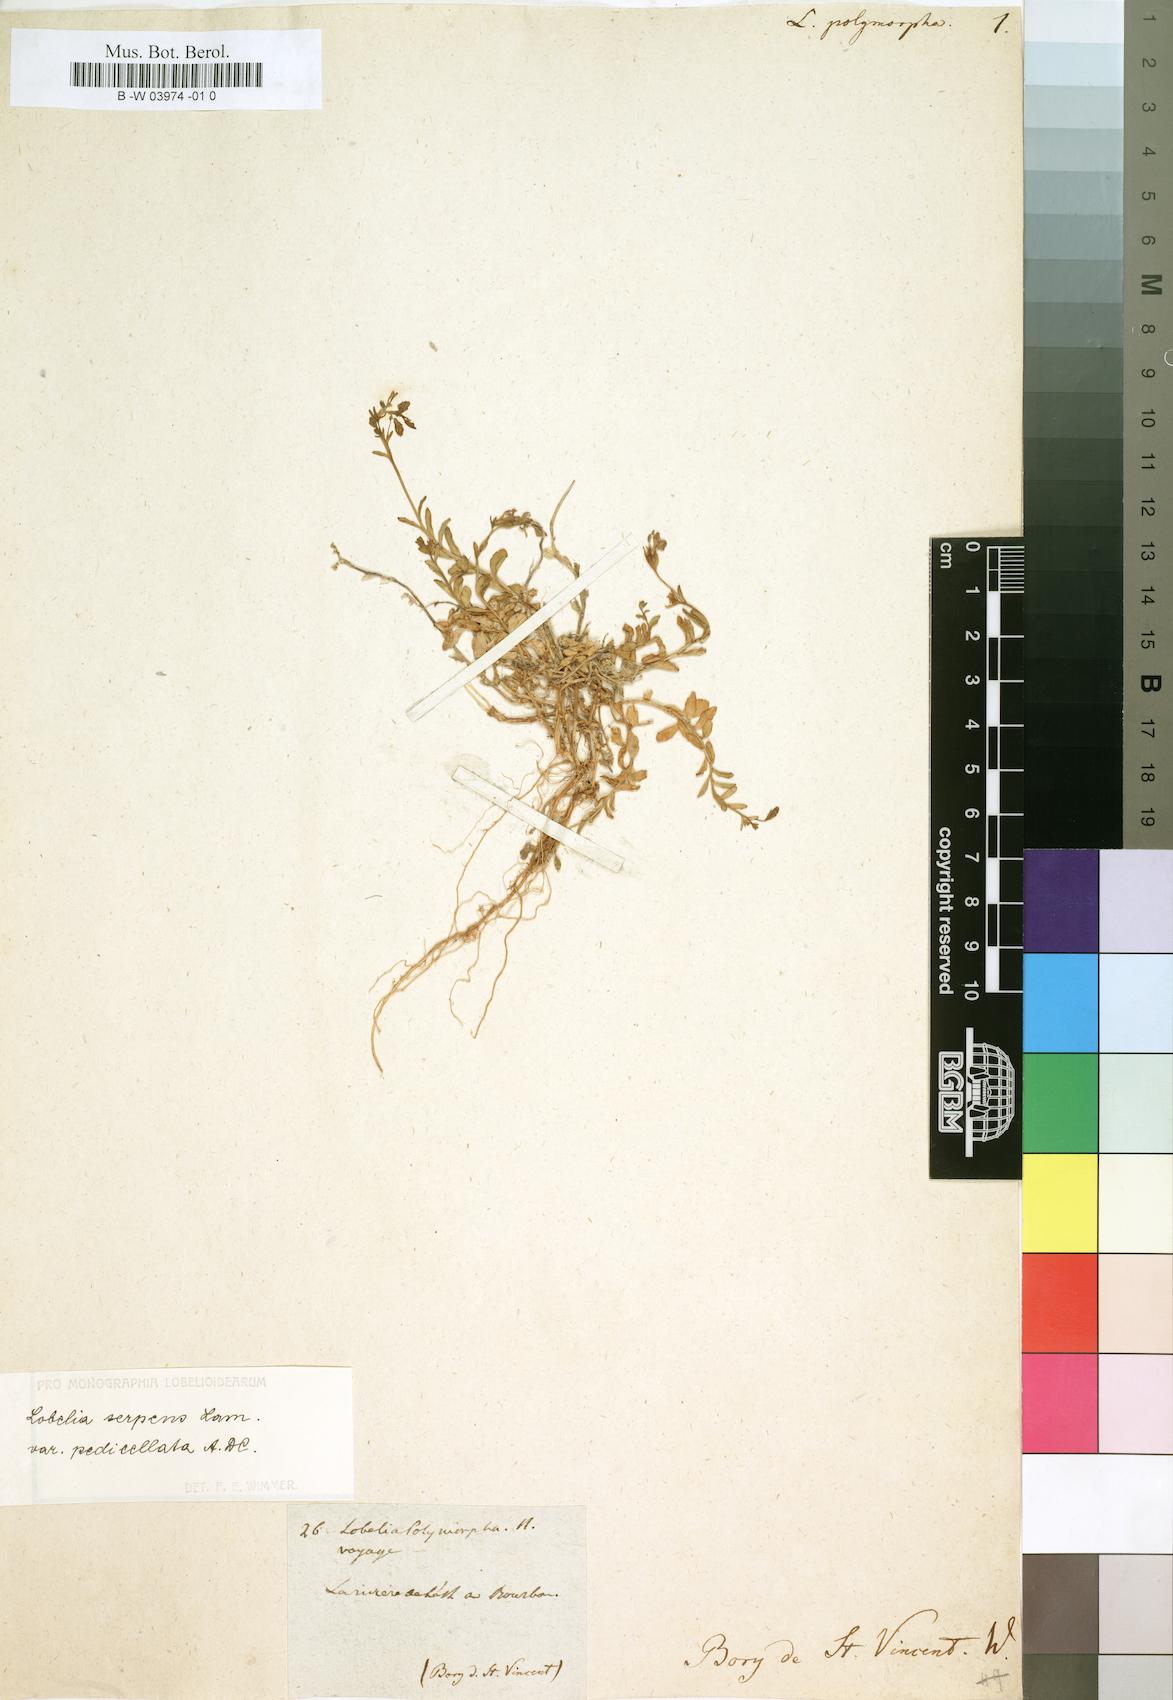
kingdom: Plantae
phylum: Tracheophyta
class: Magnoliopsida
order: Asterales
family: Campanulaceae
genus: Lobelia
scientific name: Lobelia polymorpha
